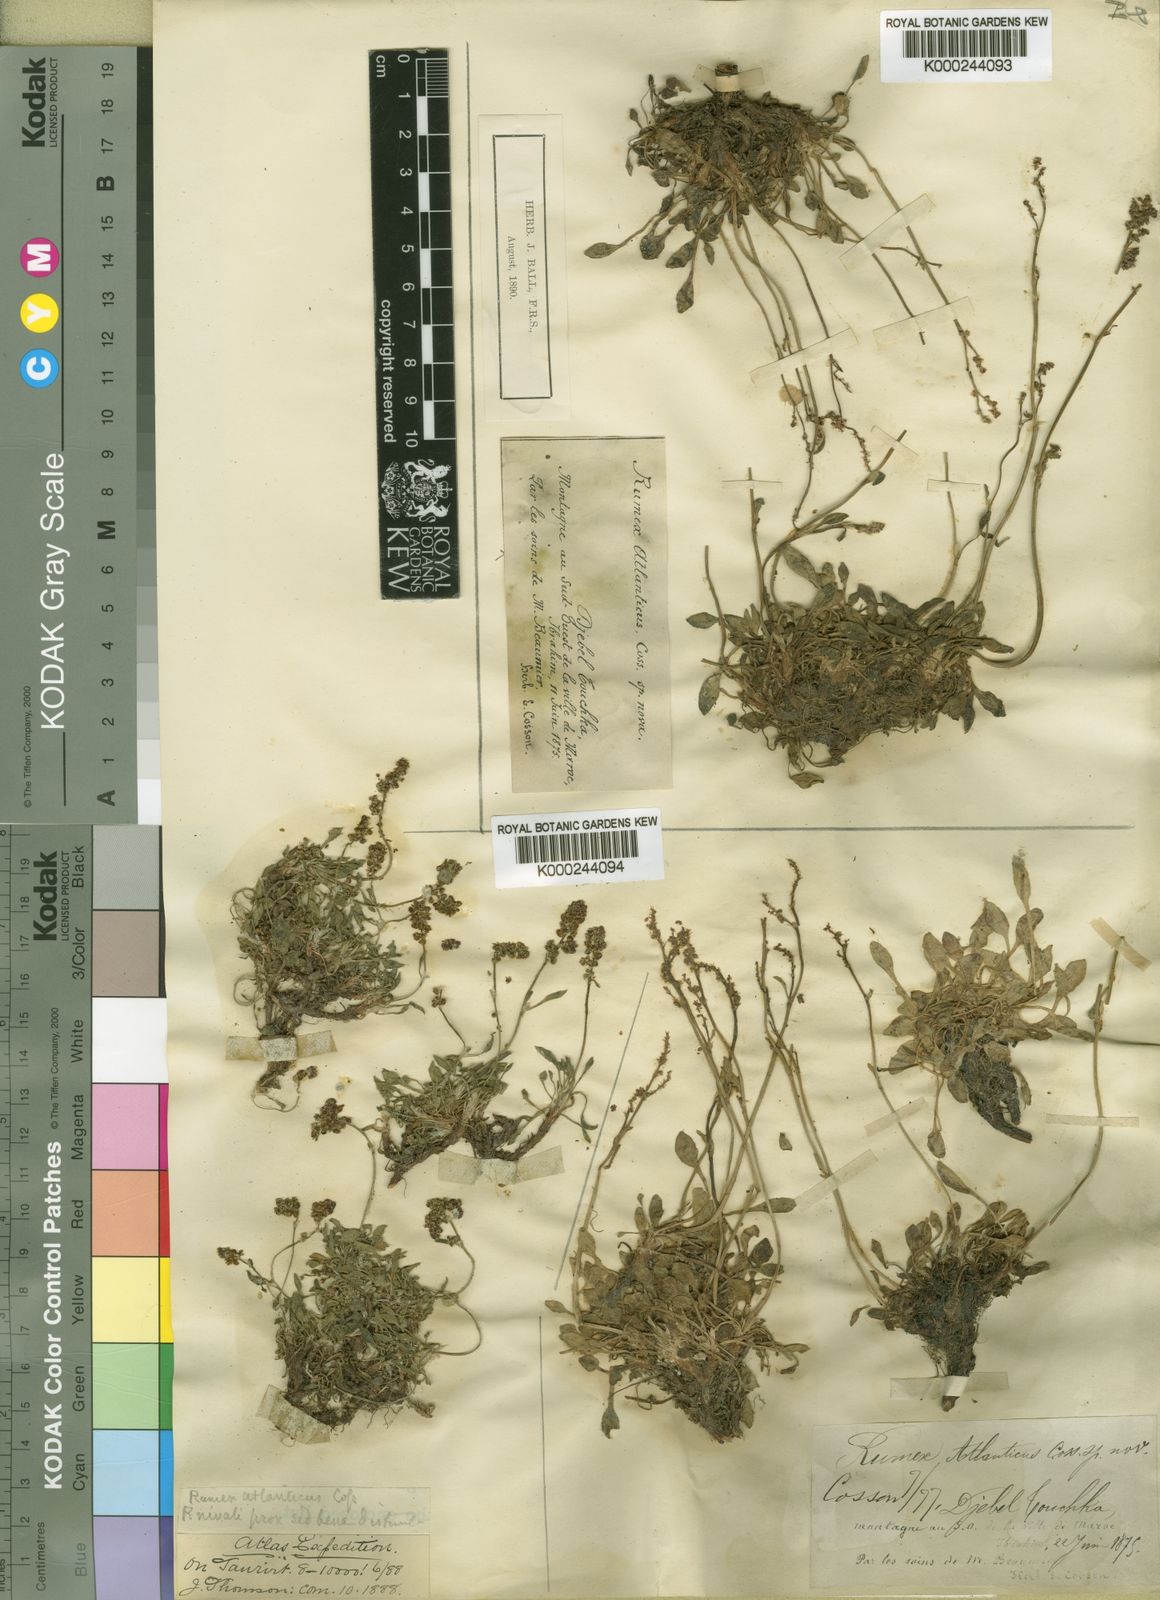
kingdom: Plantae
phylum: Tracheophyta
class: Magnoliopsida
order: Caryophyllales
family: Polygonaceae
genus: Rumex
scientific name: Rumex
